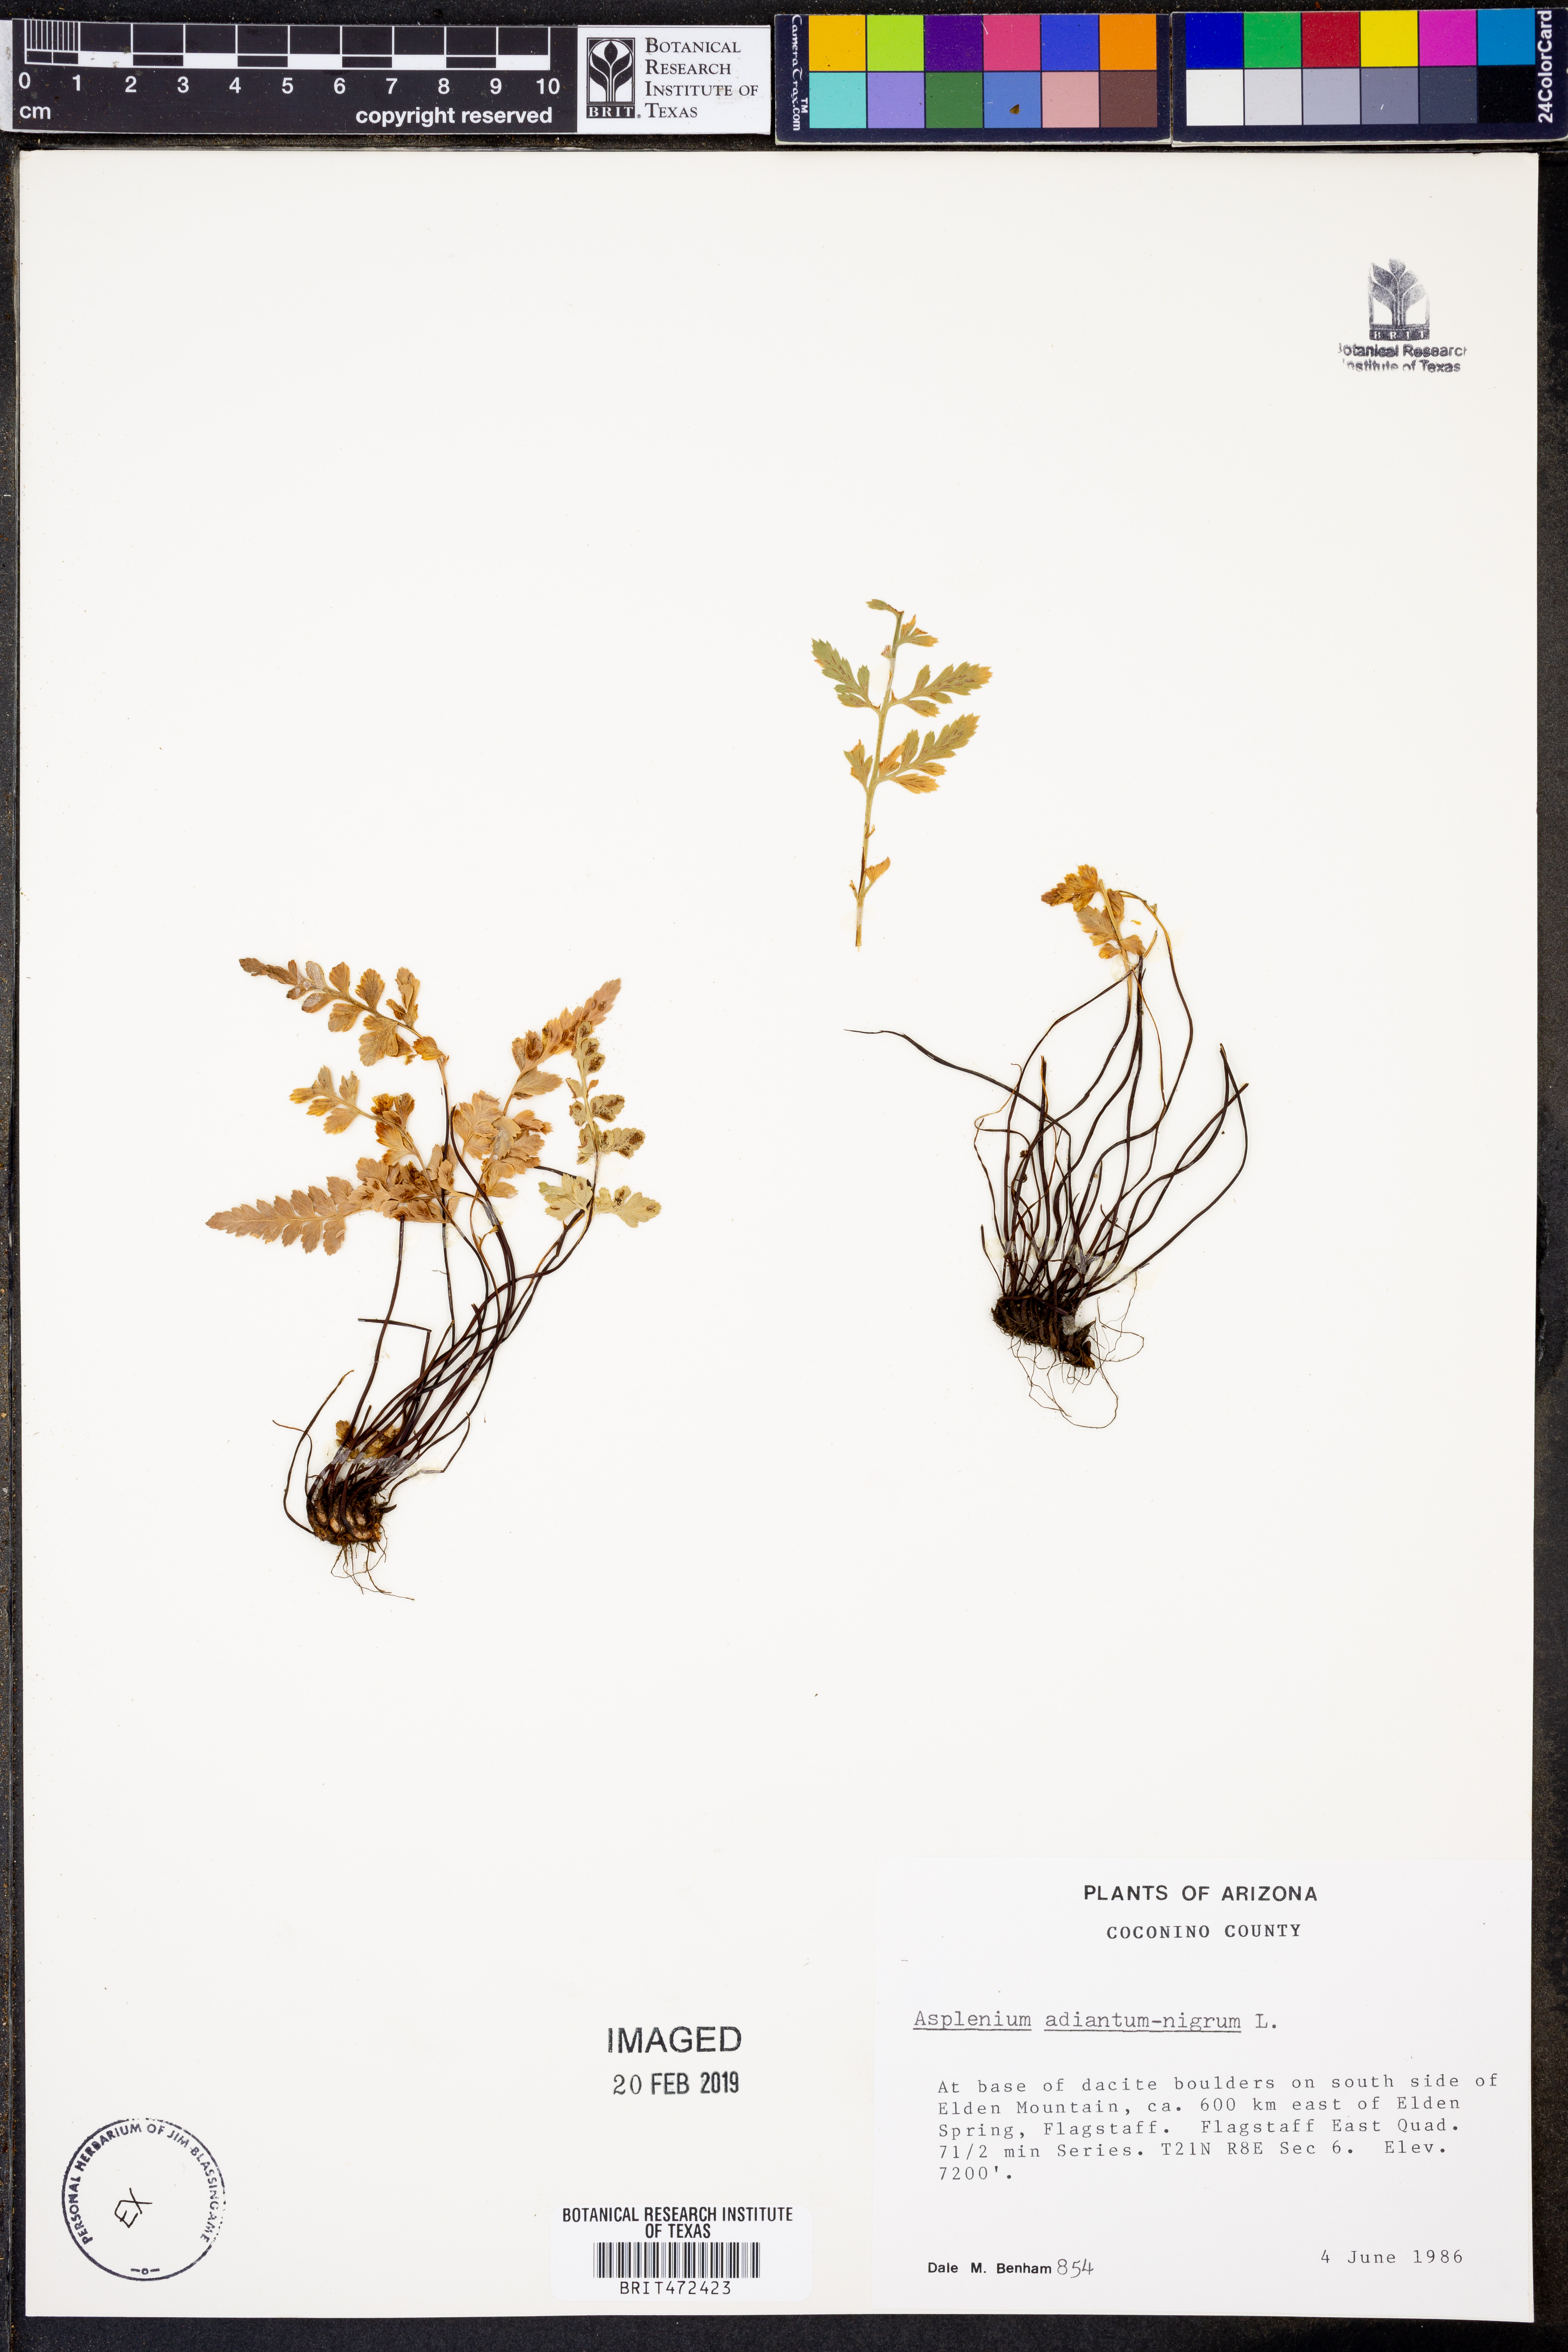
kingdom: Plantae
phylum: Tracheophyta
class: Polypodiopsida
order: Polypodiales
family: Aspleniaceae
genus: Asplenium
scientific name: Asplenium adiantum-nigrum
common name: Black spleenwort
